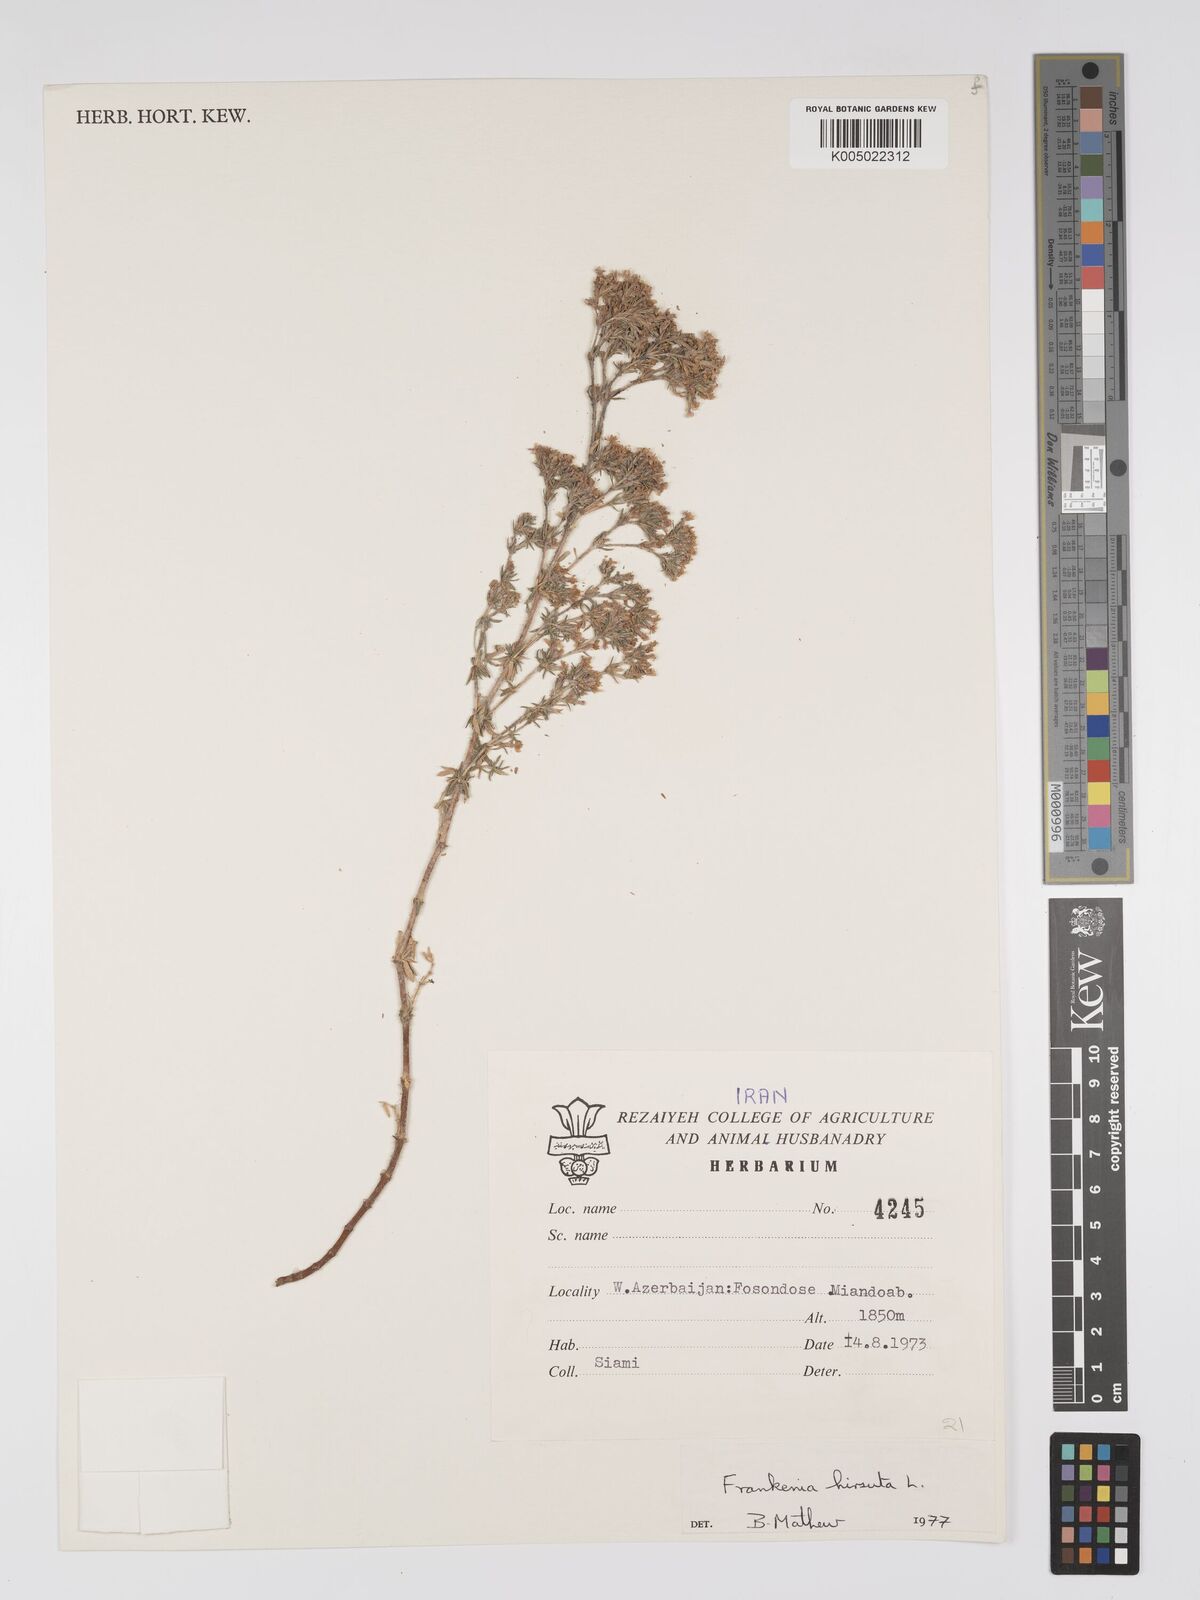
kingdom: Plantae
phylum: Tracheophyta
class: Magnoliopsida
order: Caryophyllales
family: Frankeniaceae
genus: Frankenia
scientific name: Frankenia pulverulenta
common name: European seaheath
